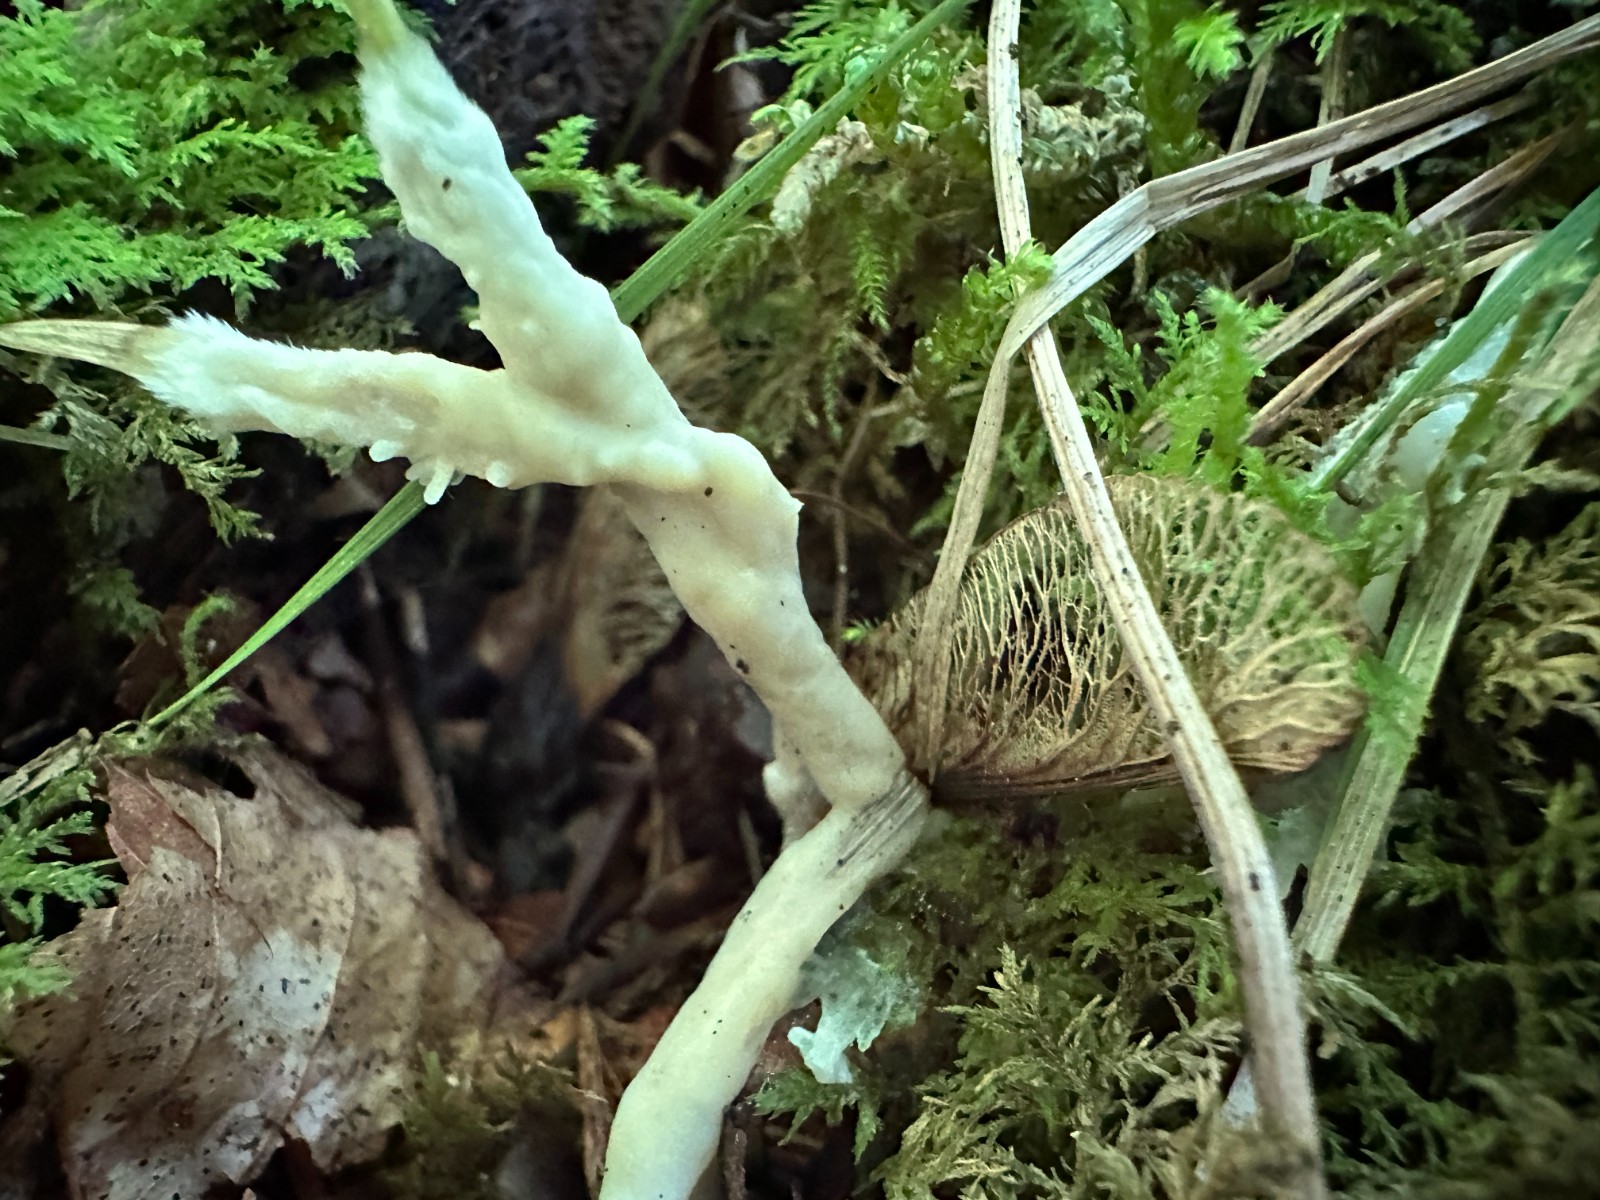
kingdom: Fungi
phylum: Basidiomycota
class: Agaricomycetes
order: Sebacinales
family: Sebacinaceae
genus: Sebacina
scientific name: Sebacina incrustans
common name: krybende bævretalg
